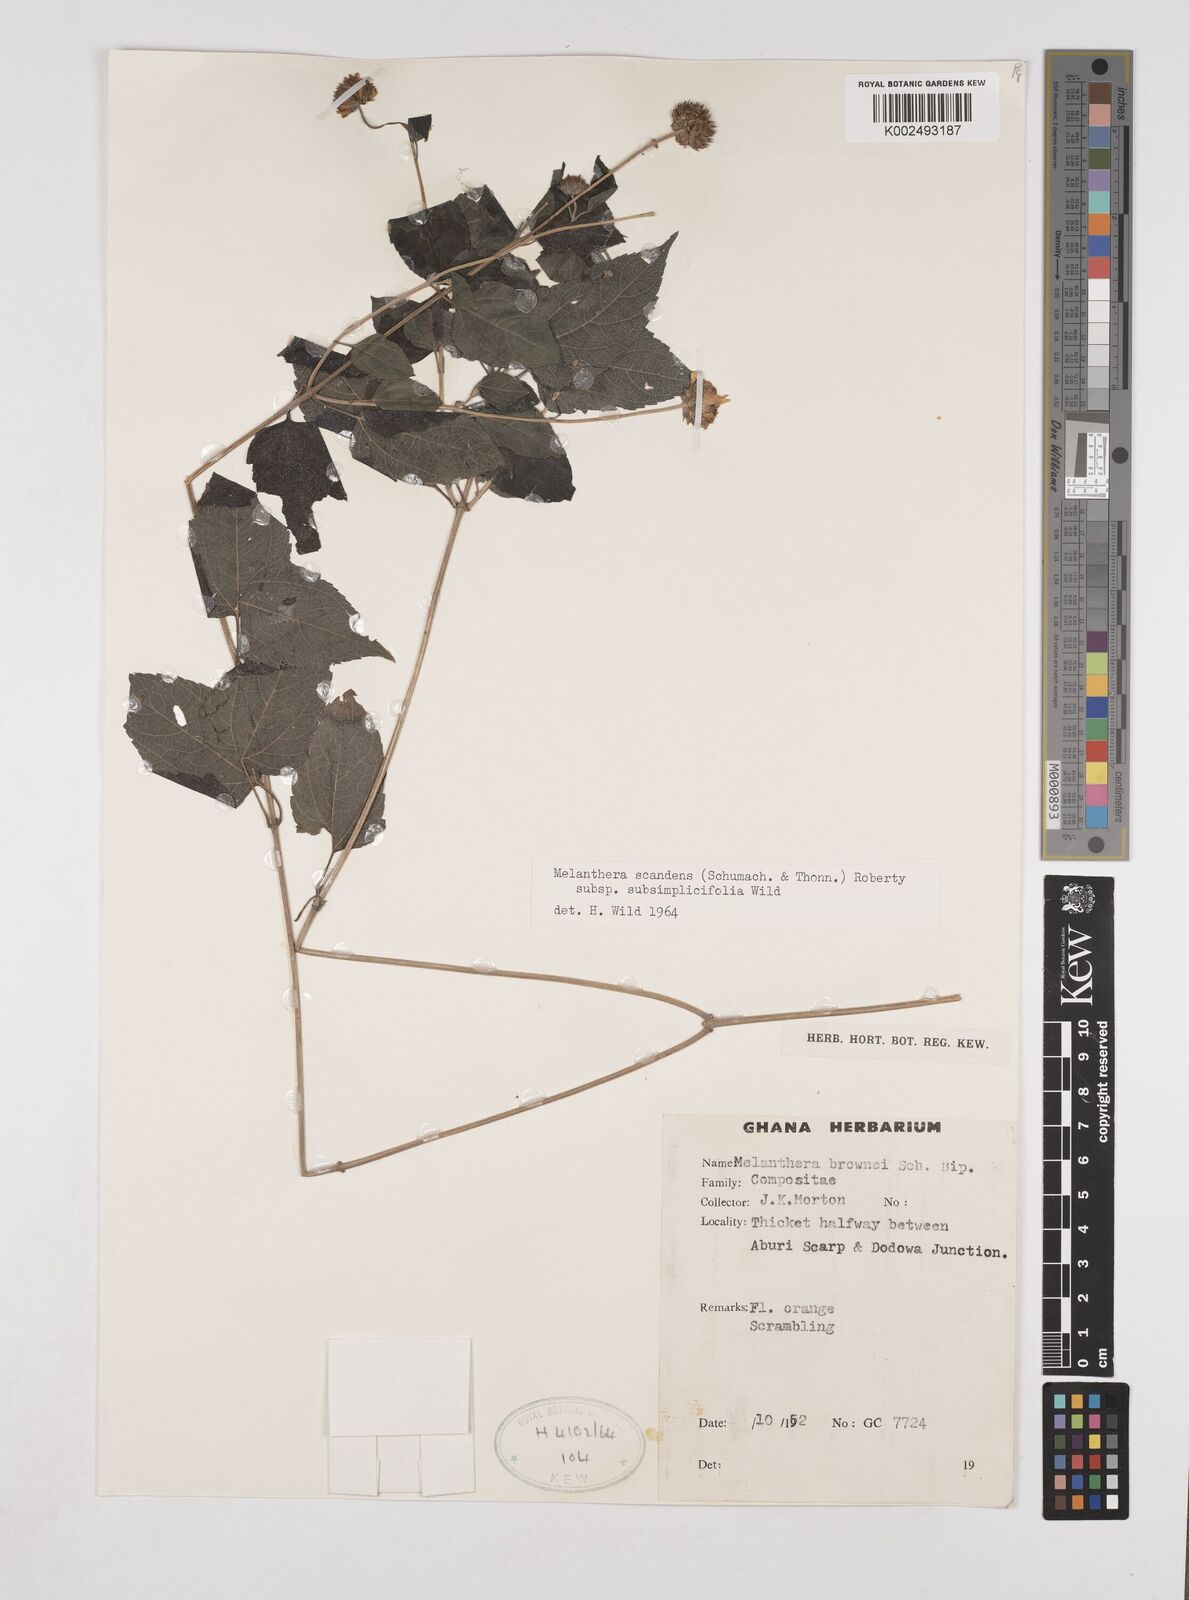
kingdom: Plantae
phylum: Tracheophyta
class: Magnoliopsida
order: Asterales
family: Asteraceae
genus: Lipotriche
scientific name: Lipotriche scandens
